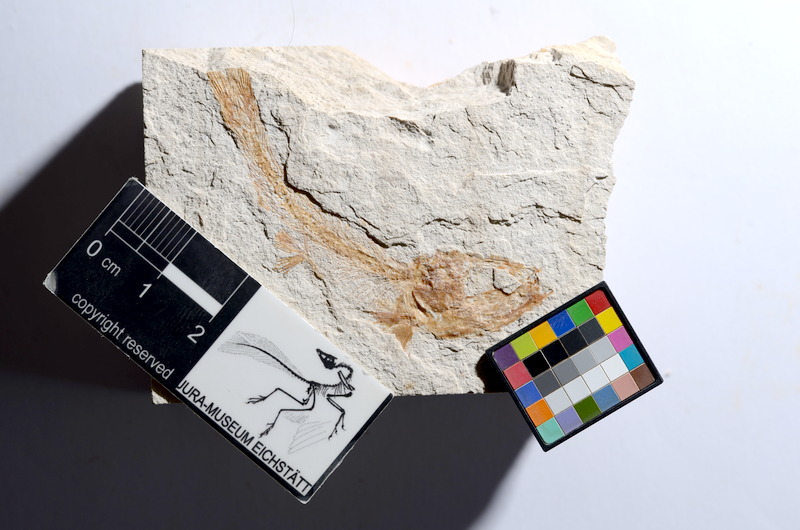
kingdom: Animalia
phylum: Chordata
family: Ascalaboidae
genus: Tharsis
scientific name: Tharsis dubius
